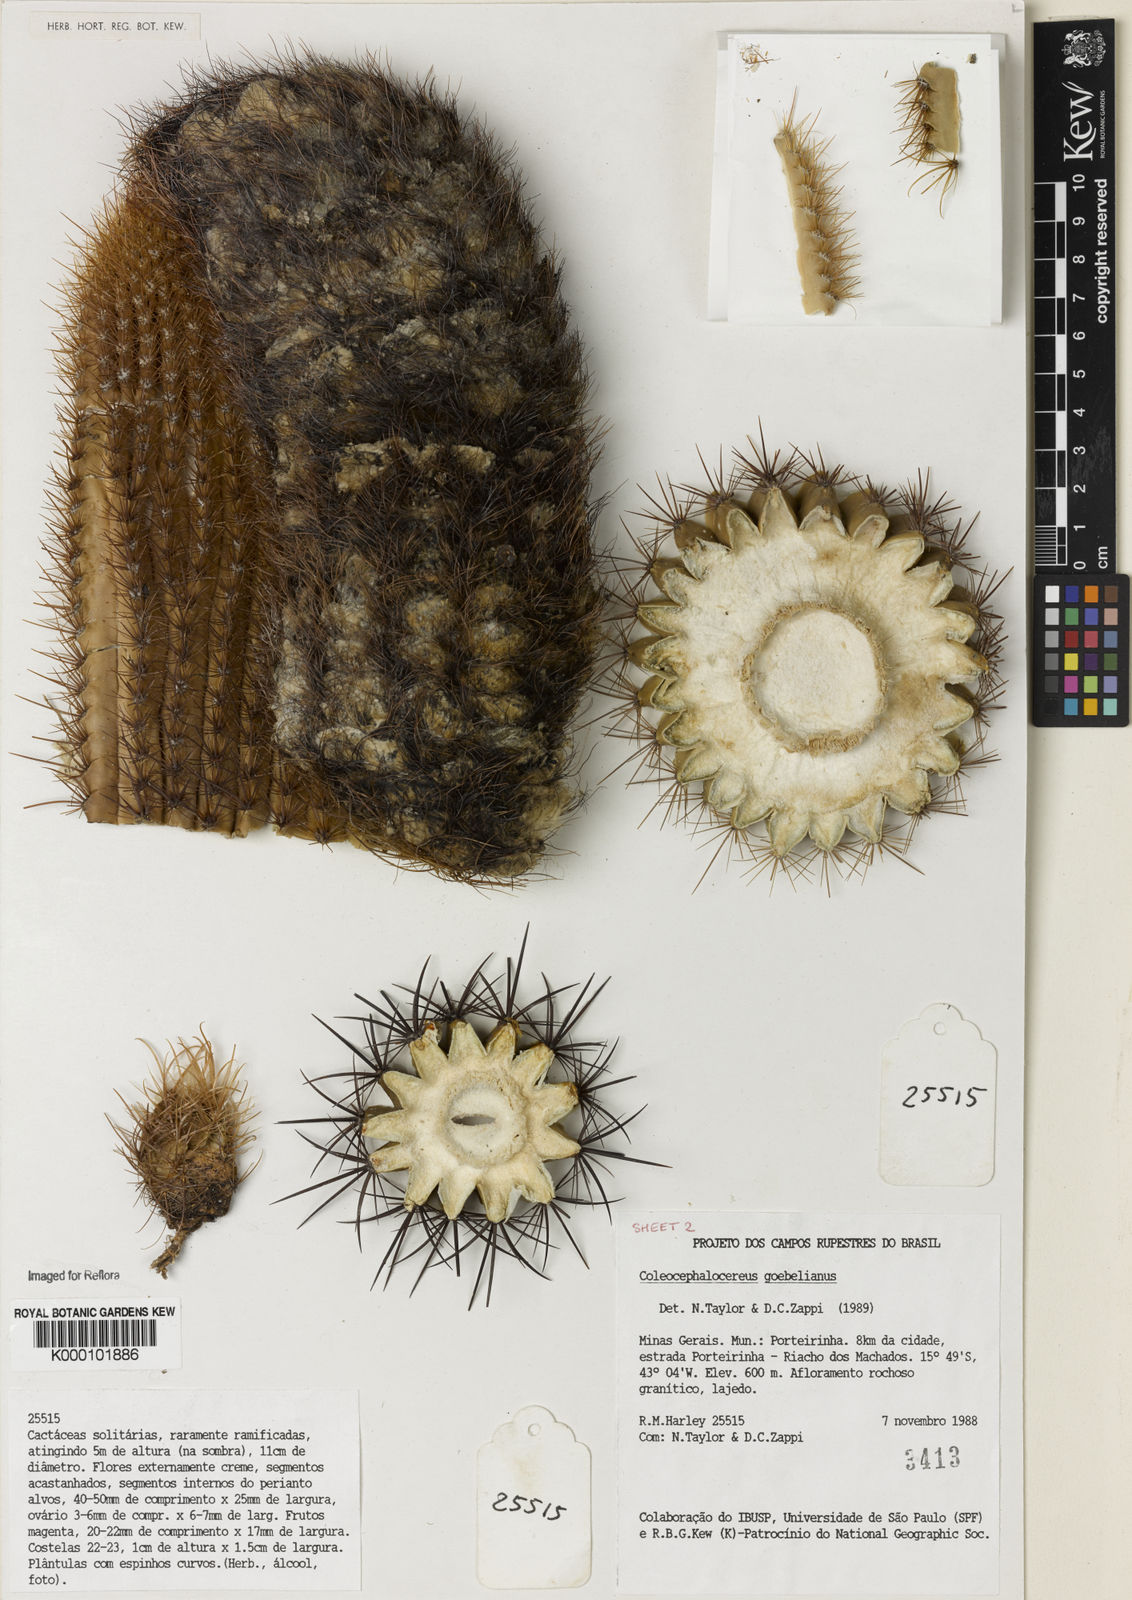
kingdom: Plantae
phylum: Tracheophyta
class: Magnoliopsida
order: Caryophyllales
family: Cactaceae
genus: Coleocephalocereus
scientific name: Coleocephalocereus goebelianus
